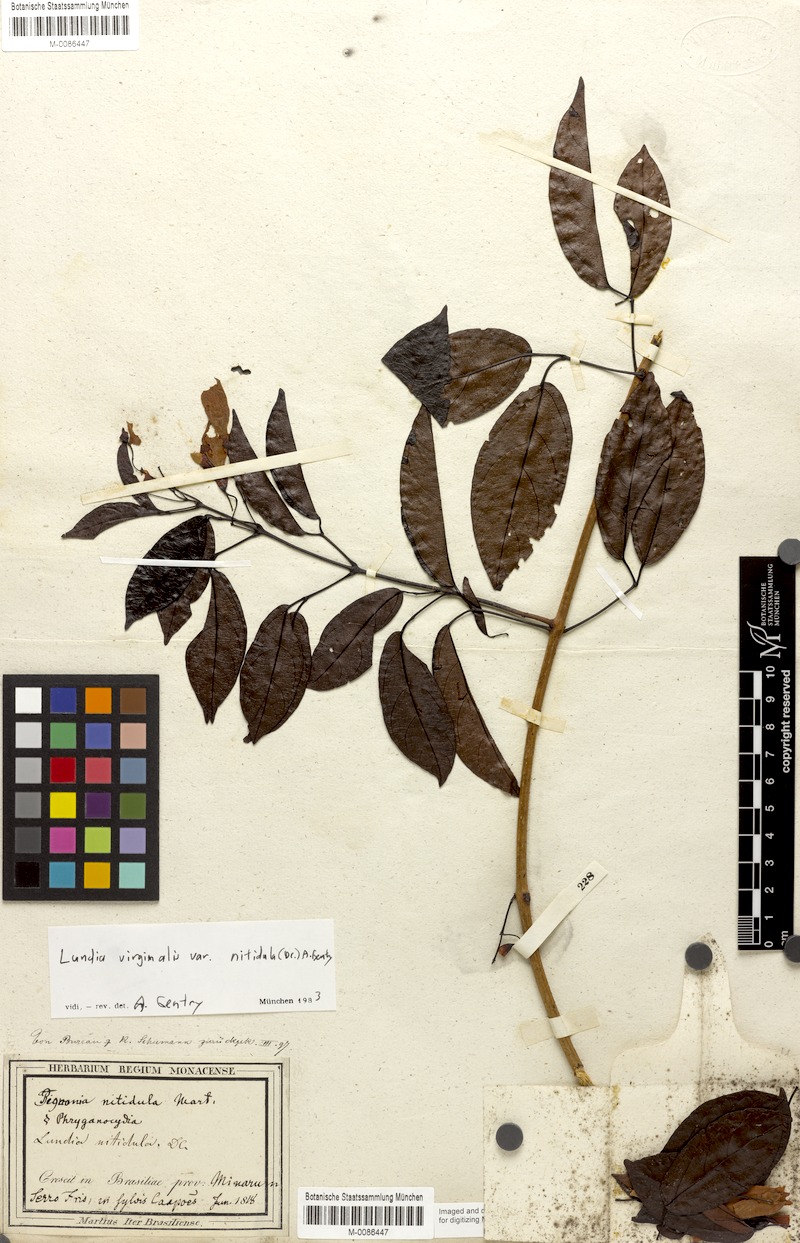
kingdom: Plantae
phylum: Tracheophyta
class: Magnoliopsida
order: Lamiales
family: Bignoniaceae
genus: Lundia
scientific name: Lundia virginalis
